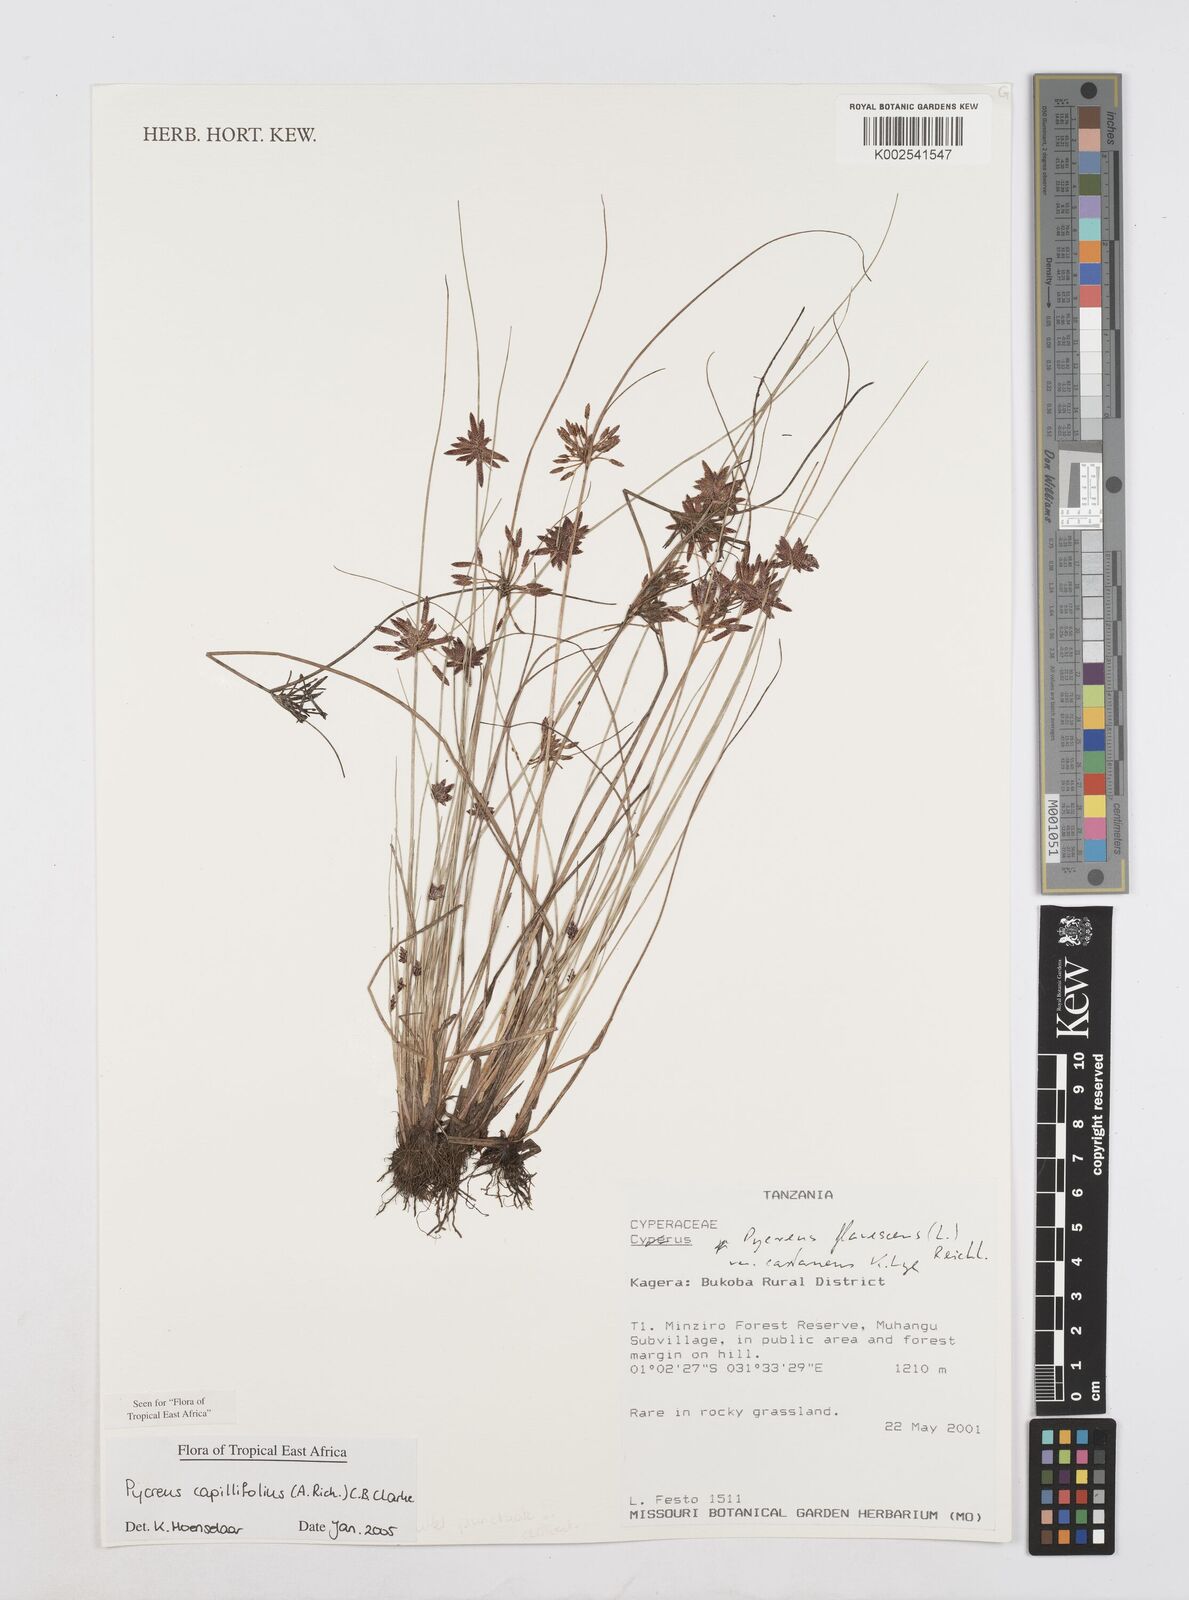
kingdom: Plantae
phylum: Tracheophyta
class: Liliopsida
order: Poales
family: Cyperaceae
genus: Cyperus
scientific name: Cyperus capillifolius
